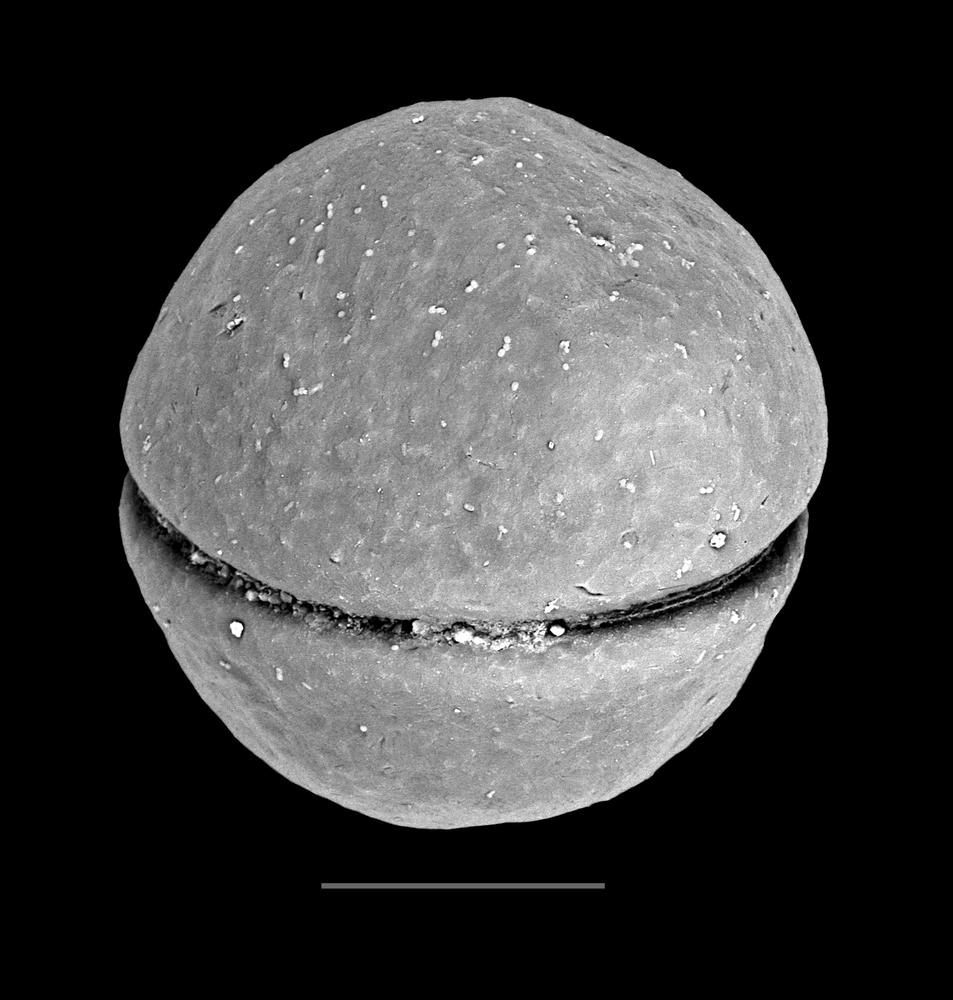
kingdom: Animalia
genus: Vikisphaera
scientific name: Vikisphaera
